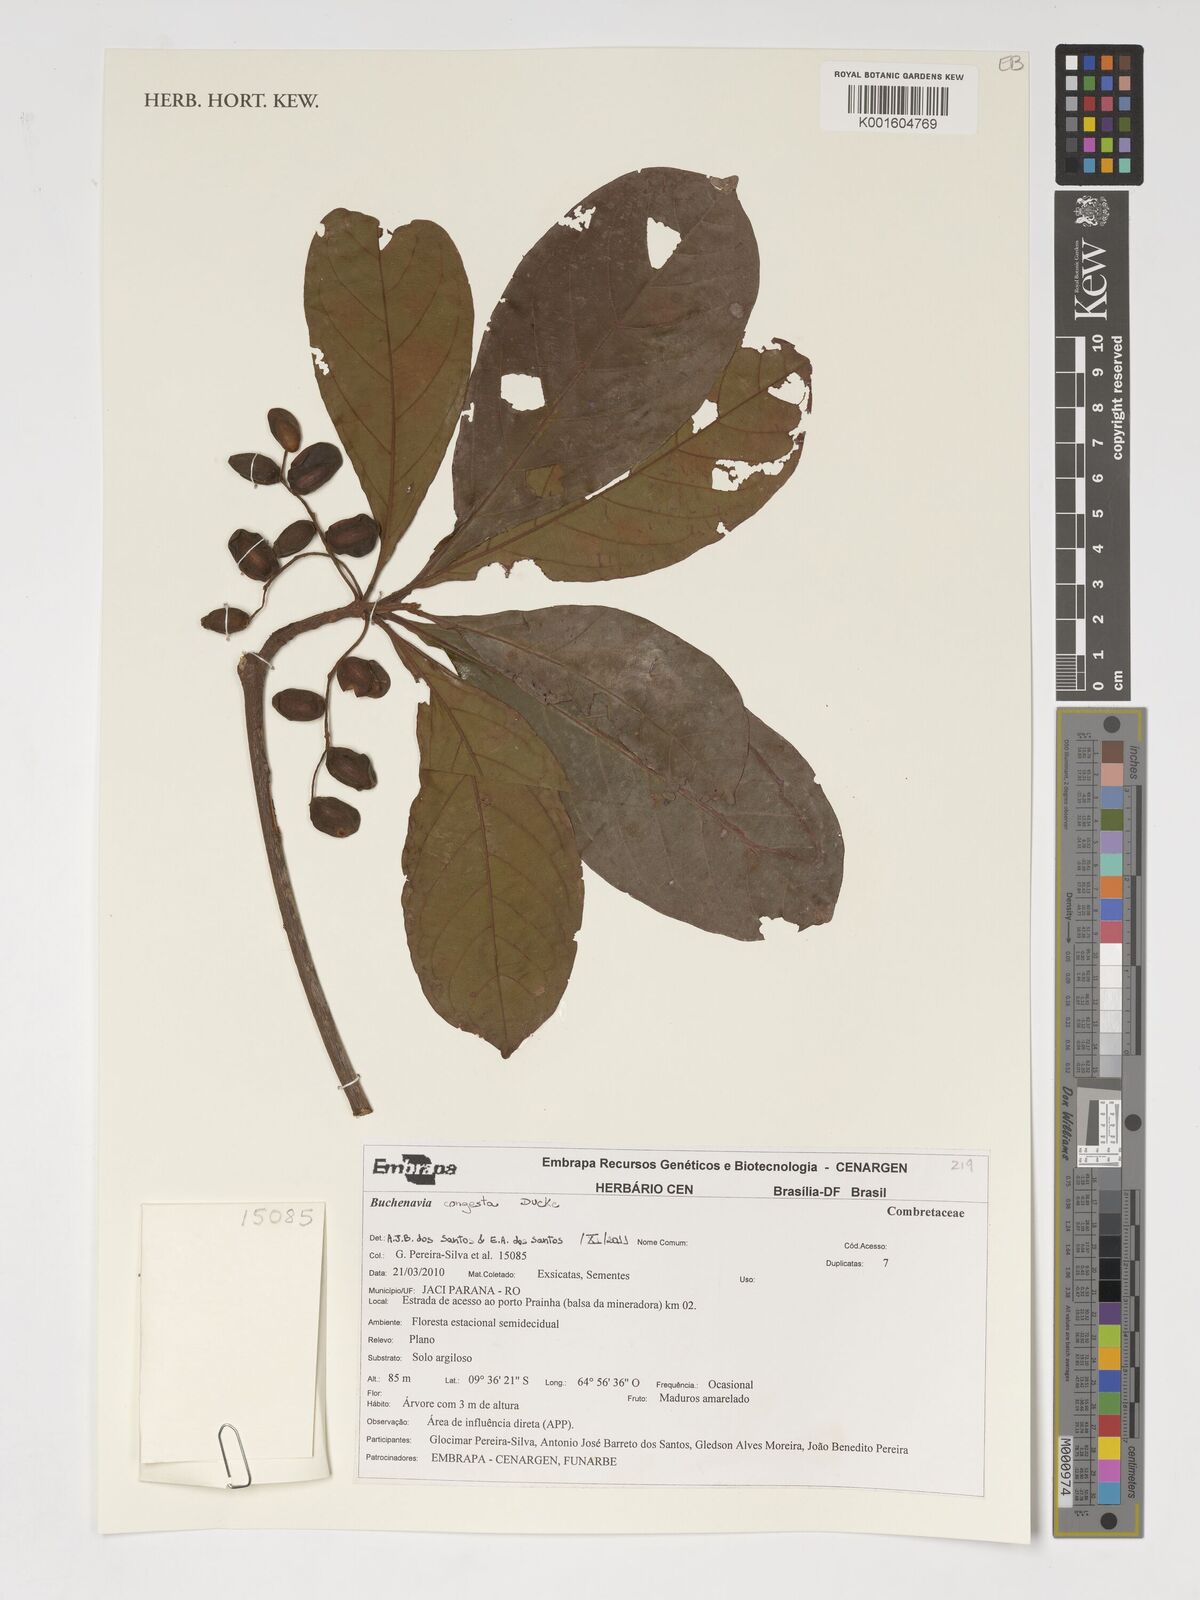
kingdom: Plantae
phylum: Tracheophyta
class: Magnoliopsida
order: Myrtales
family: Combretaceae
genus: Terminalia
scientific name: Terminalia congesta
